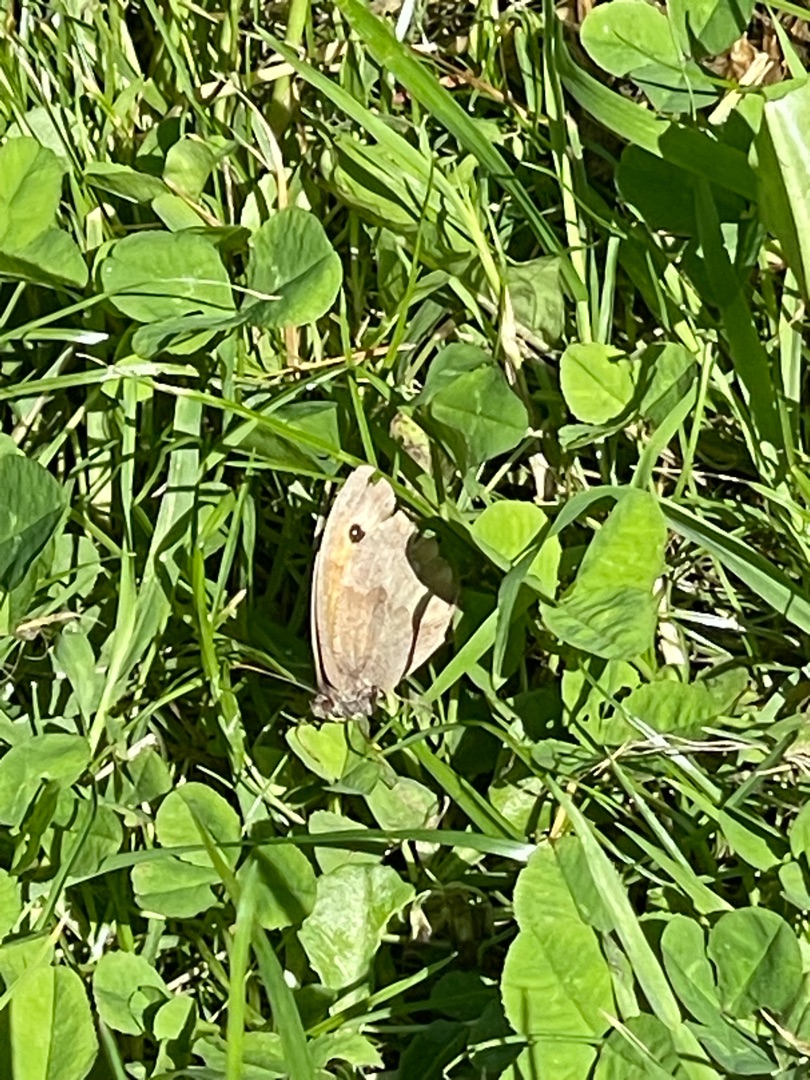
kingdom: Animalia
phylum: Arthropoda
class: Insecta
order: Lepidoptera
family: Nymphalidae
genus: Maniola
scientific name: Maniola jurtina
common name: Græsrandøje
